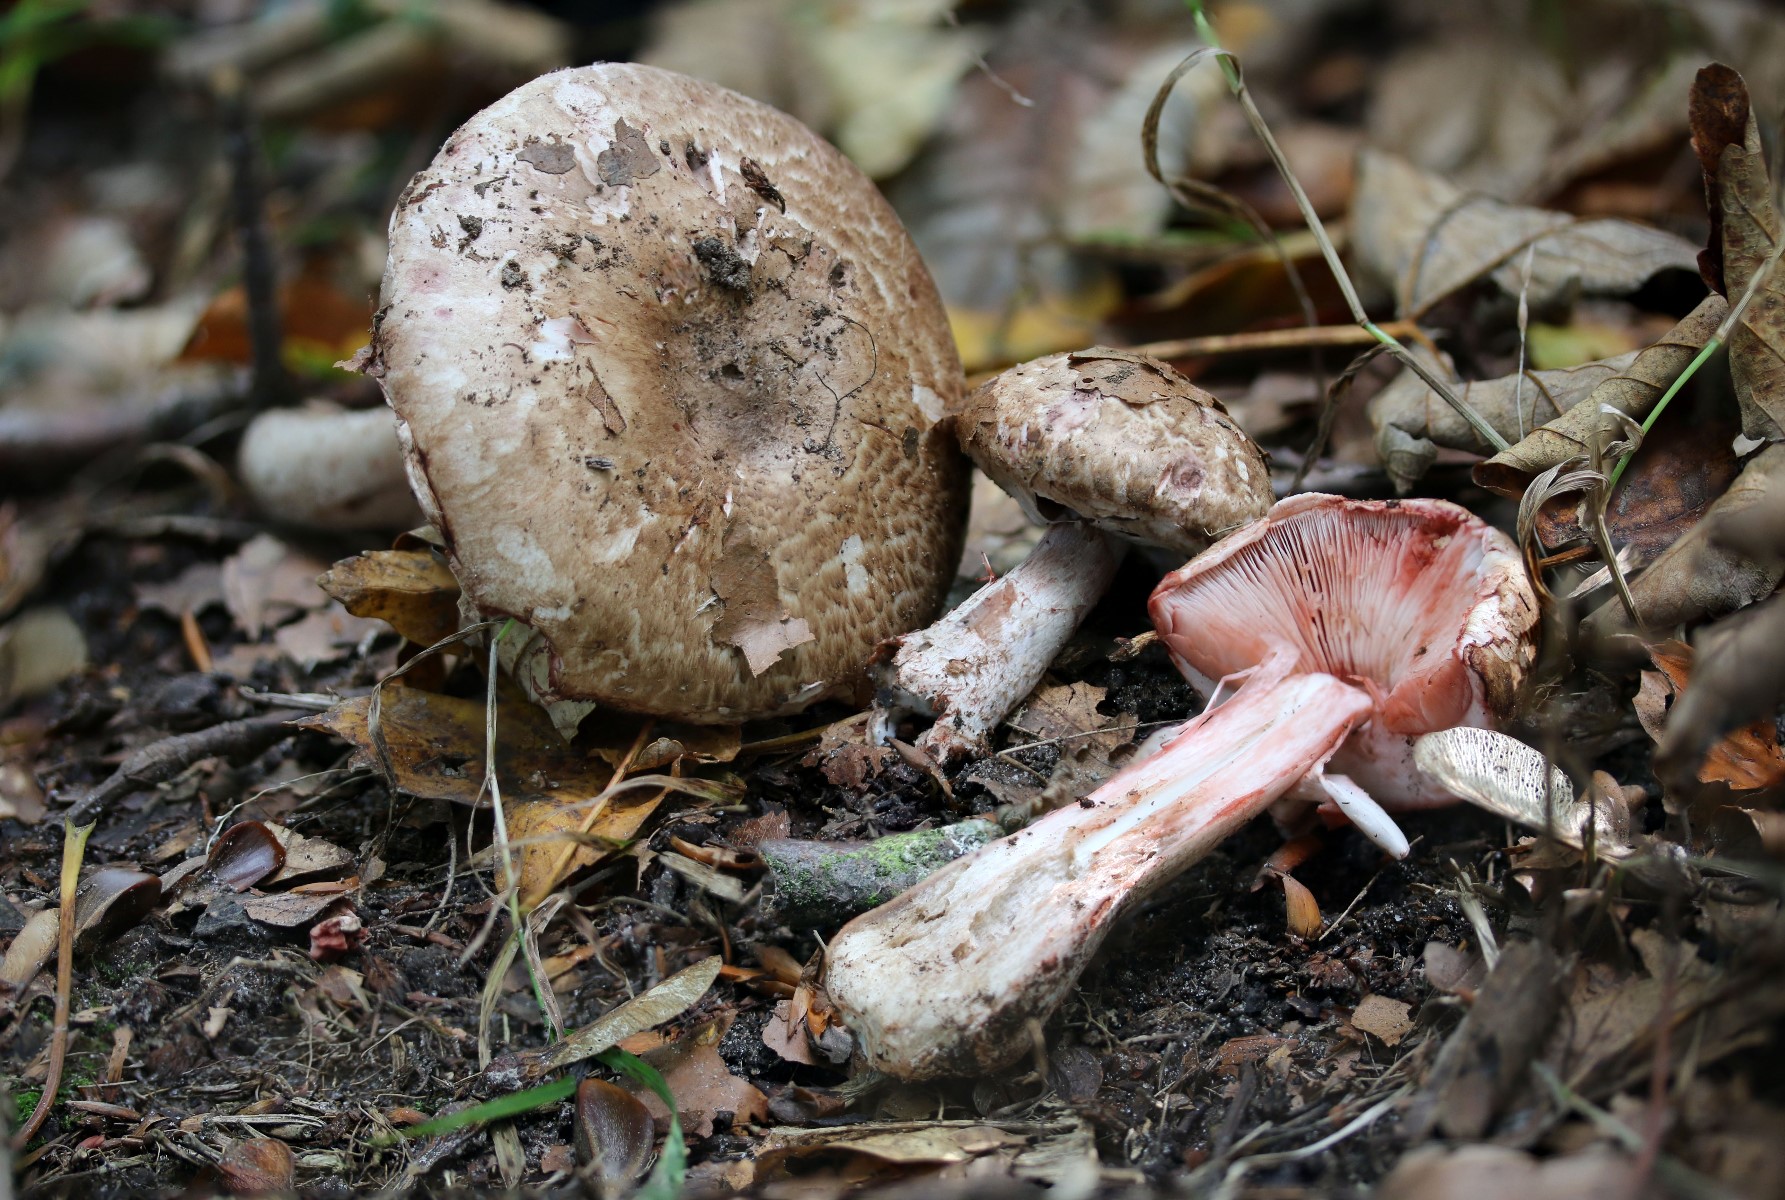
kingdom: Fungi
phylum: Basidiomycota
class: Agaricomycetes
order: Agaricales
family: Agaricaceae
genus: Agaricus
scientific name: Agaricus langei
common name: stor blod-champignon
